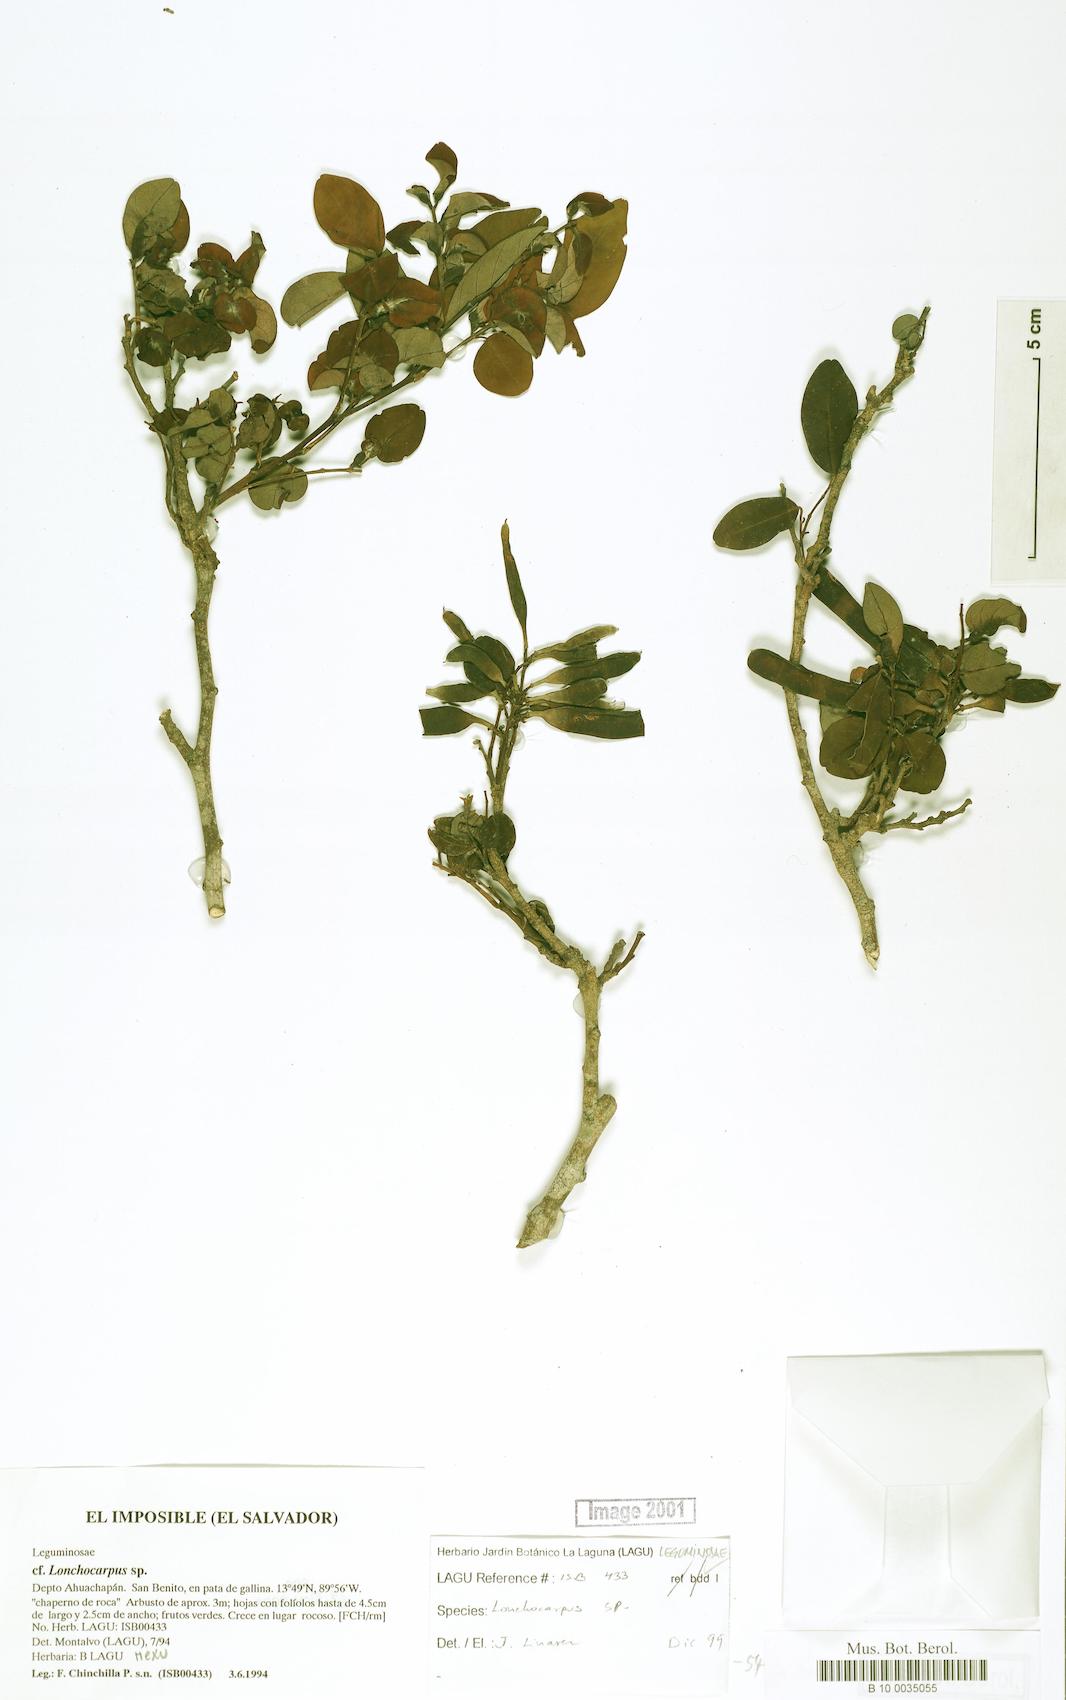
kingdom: Plantae
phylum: Tracheophyta
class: Magnoliopsida
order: Fabales
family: Fabaceae
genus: Lonchocarpus
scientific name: Lonchocarpus stenophyllus
